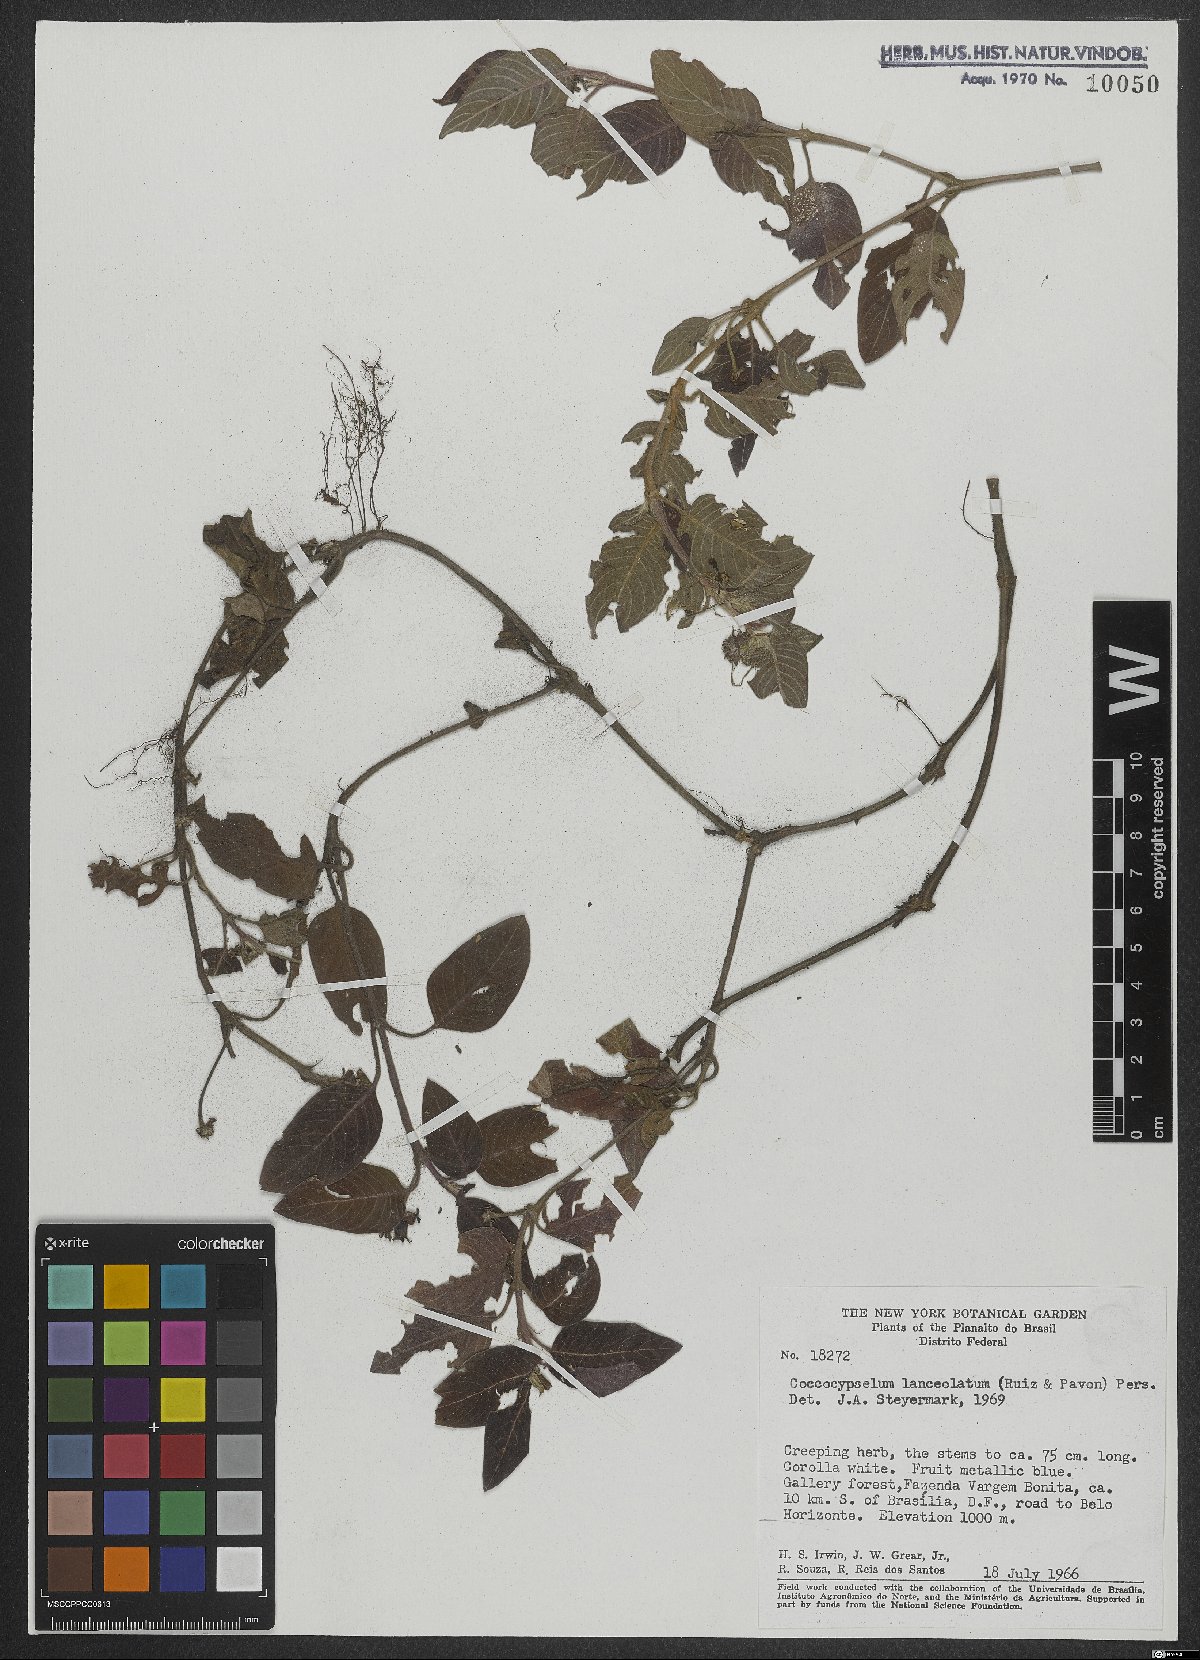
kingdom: Plantae
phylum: Tracheophyta
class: Magnoliopsida
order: Gentianales
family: Rubiaceae
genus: Coccocypselum
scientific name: Coccocypselum lanceolatum
